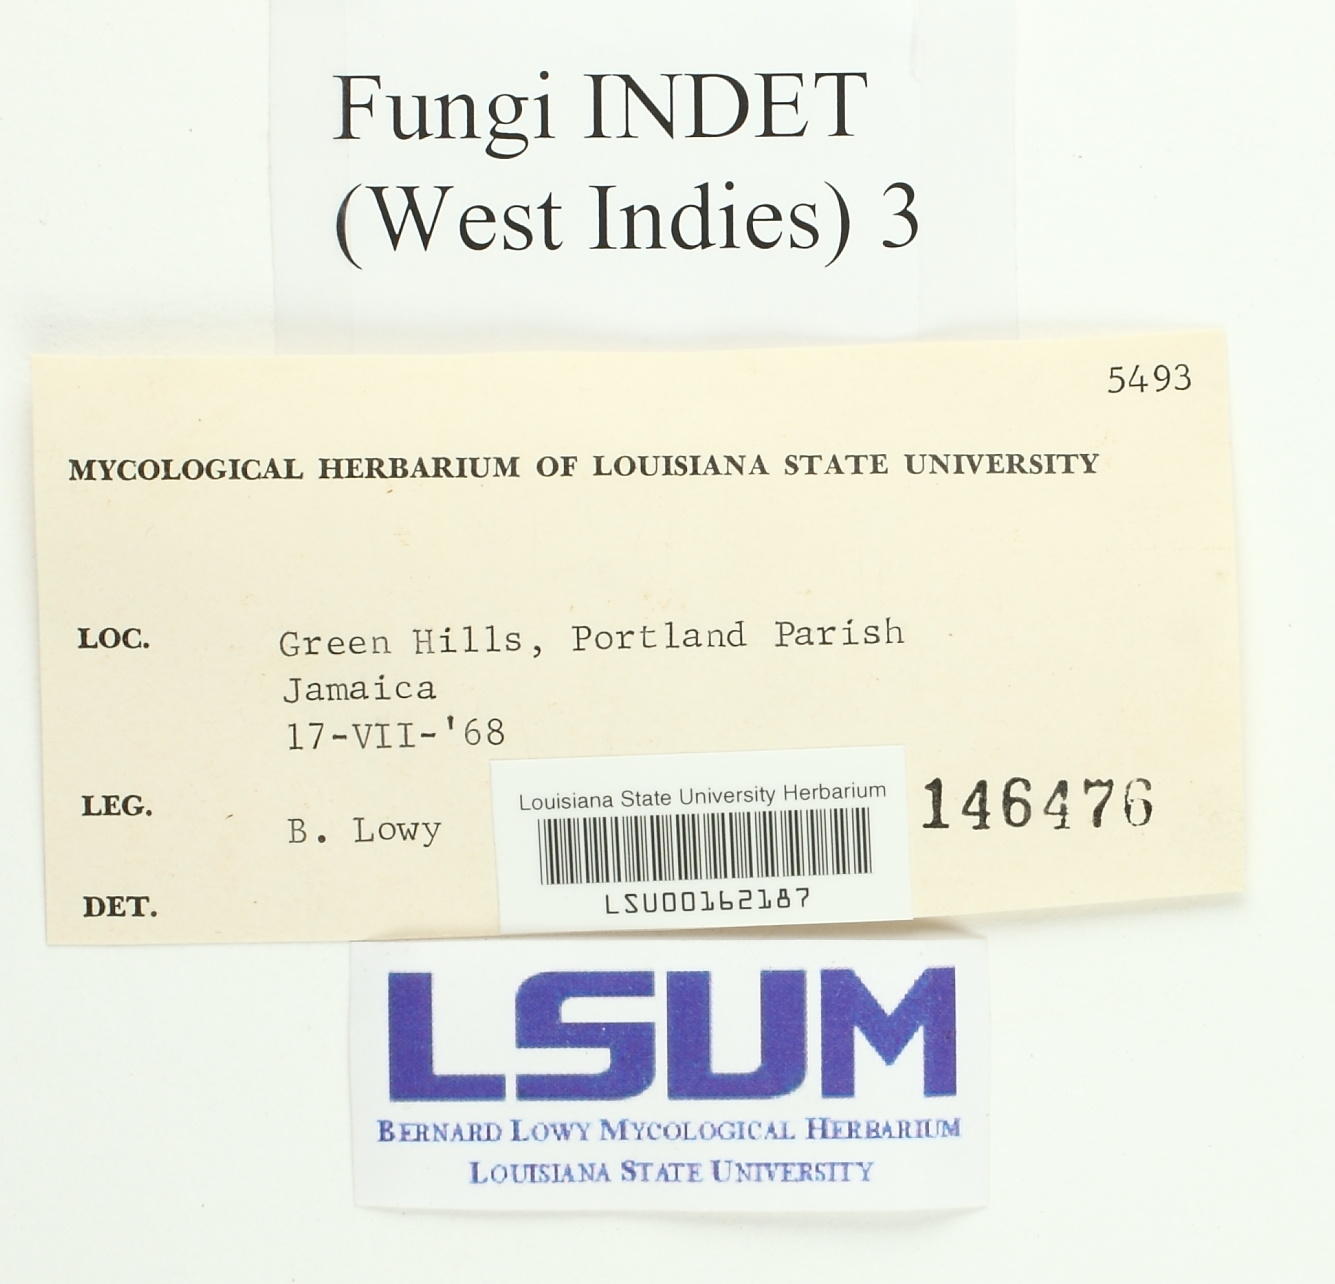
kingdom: Fungi
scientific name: Fungi
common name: Fungi
